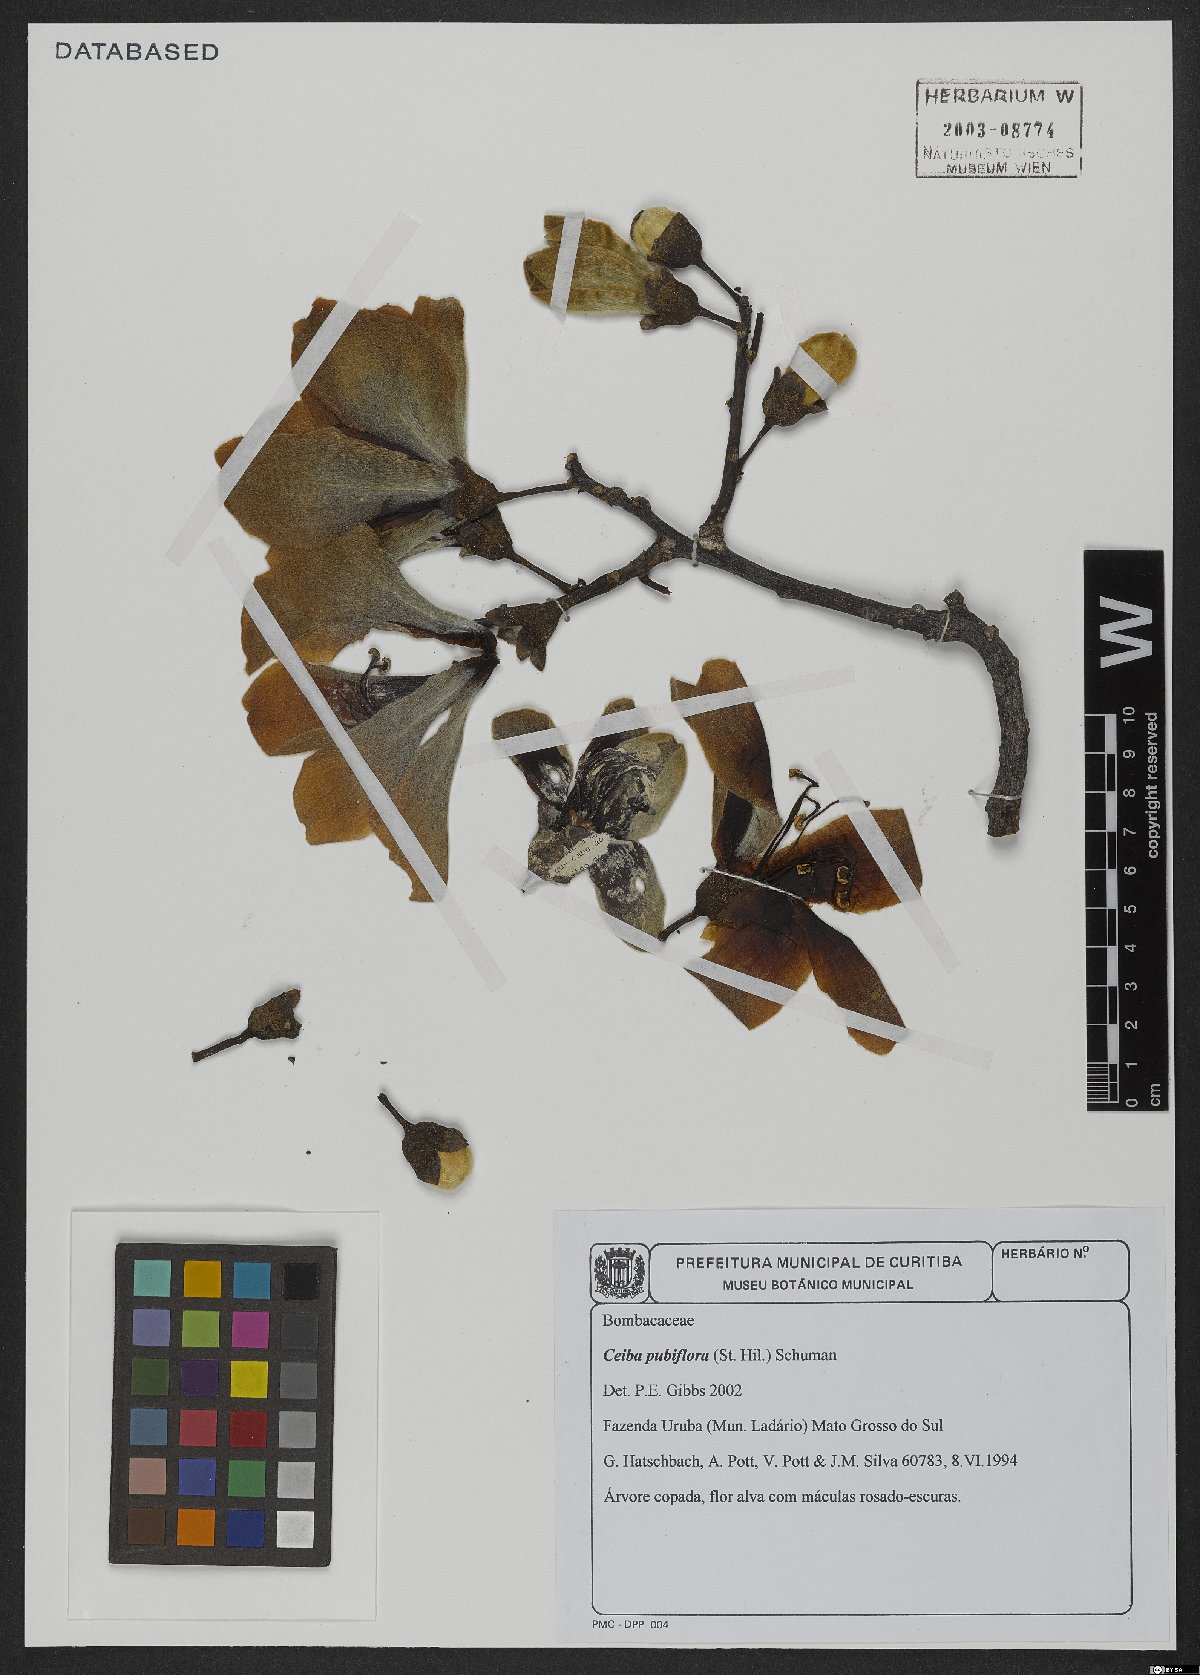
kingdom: Plantae
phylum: Tracheophyta
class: Magnoliopsida
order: Malvales
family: Malvaceae
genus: Ceiba
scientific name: Ceiba pubiflora
